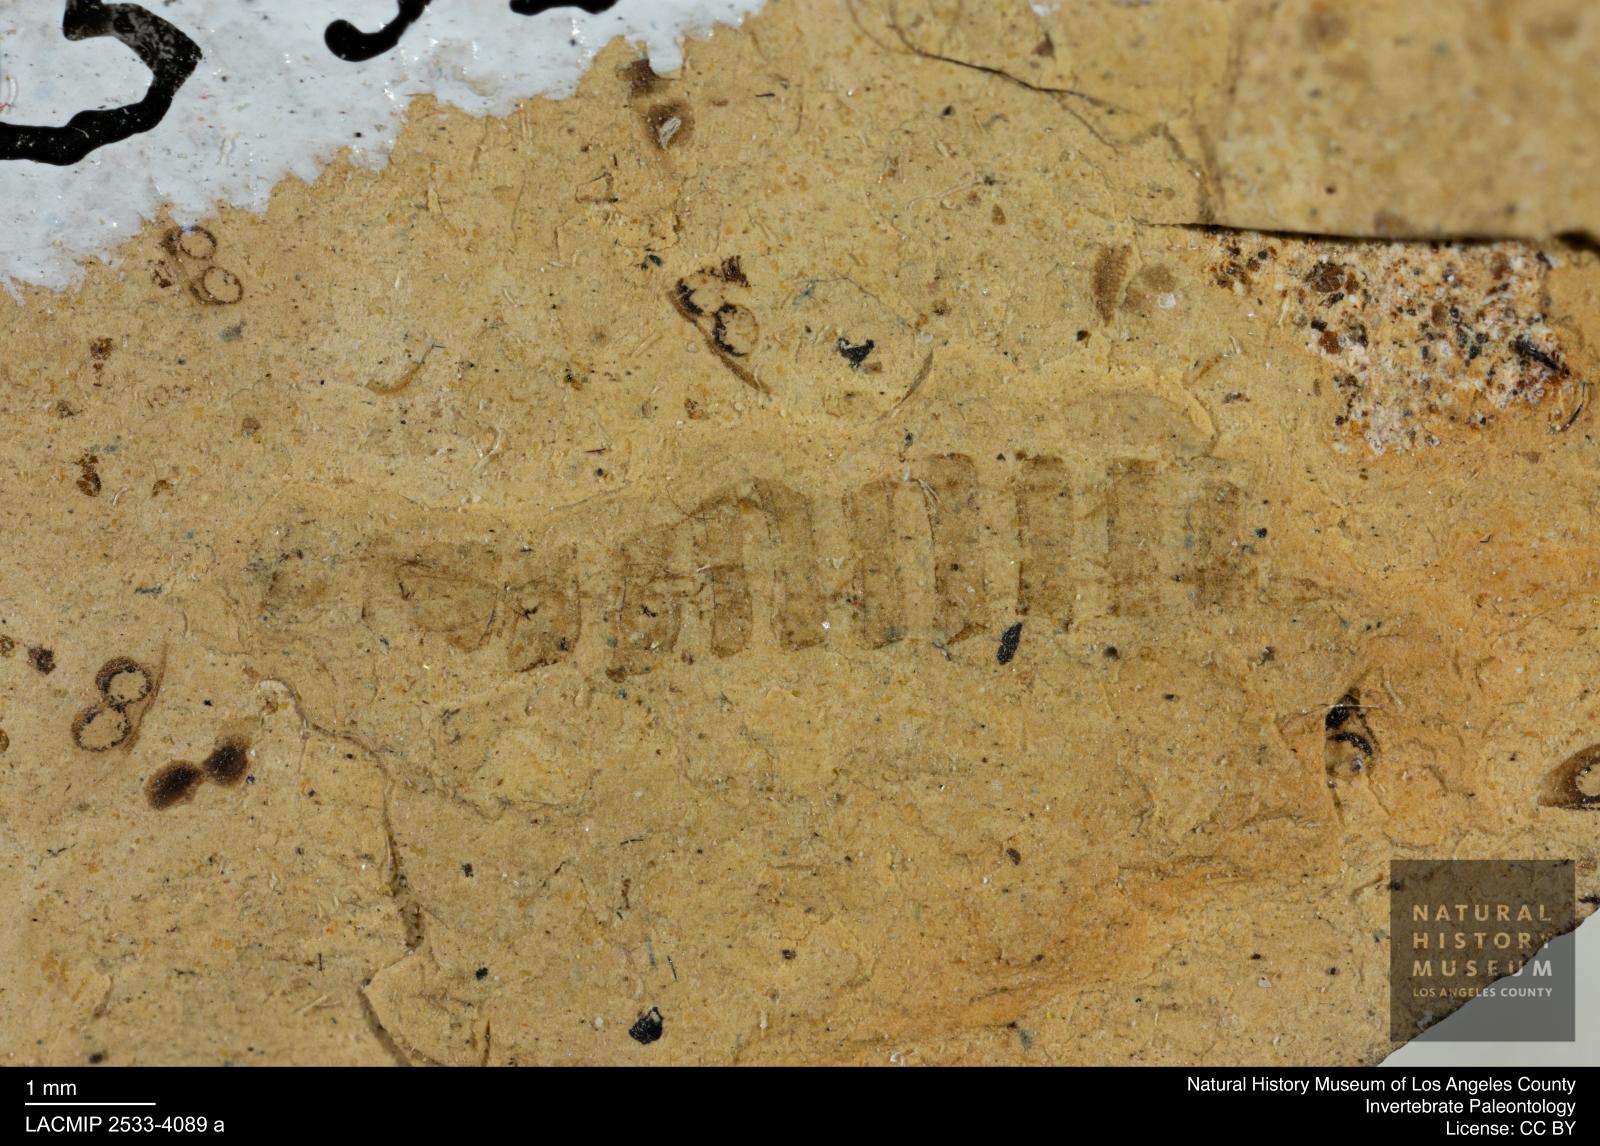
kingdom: Animalia
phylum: Arthropoda
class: Insecta
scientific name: Insecta
